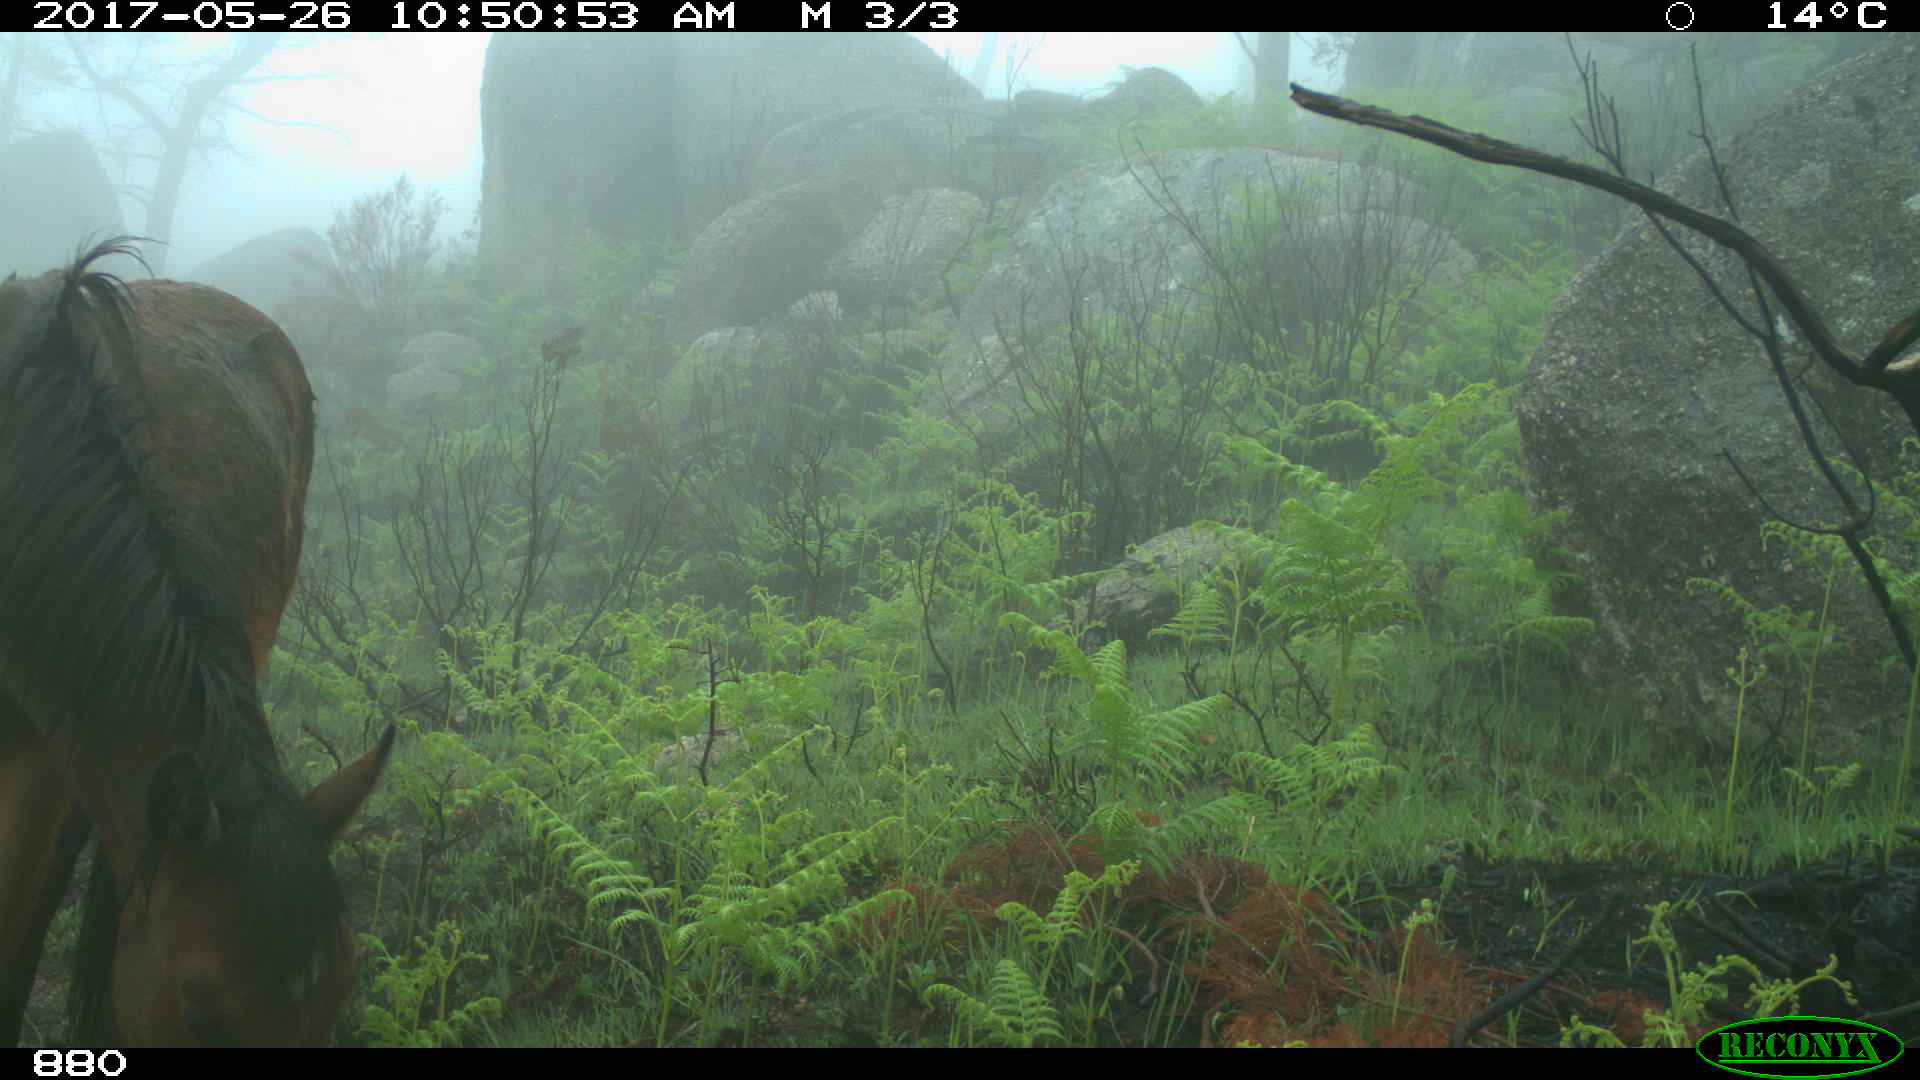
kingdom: Animalia
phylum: Chordata
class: Mammalia
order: Perissodactyla
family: Equidae
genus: Equus
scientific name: Equus caballus
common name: Horse
